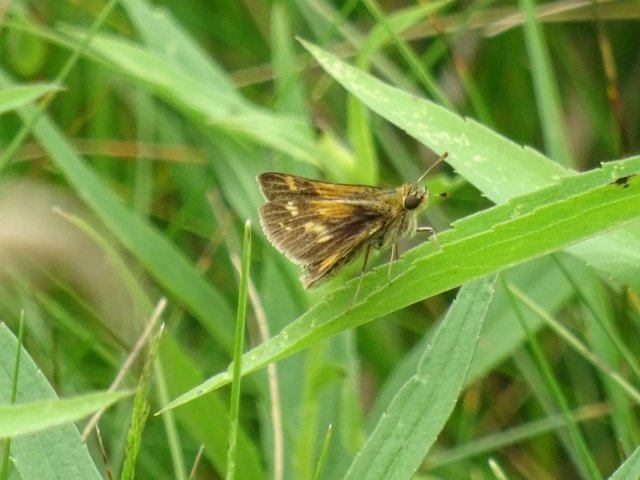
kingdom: Animalia
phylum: Arthropoda
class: Insecta
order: Lepidoptera
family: Hesperiidae
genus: Polites
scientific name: Polites coras
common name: Peck's Skipper
